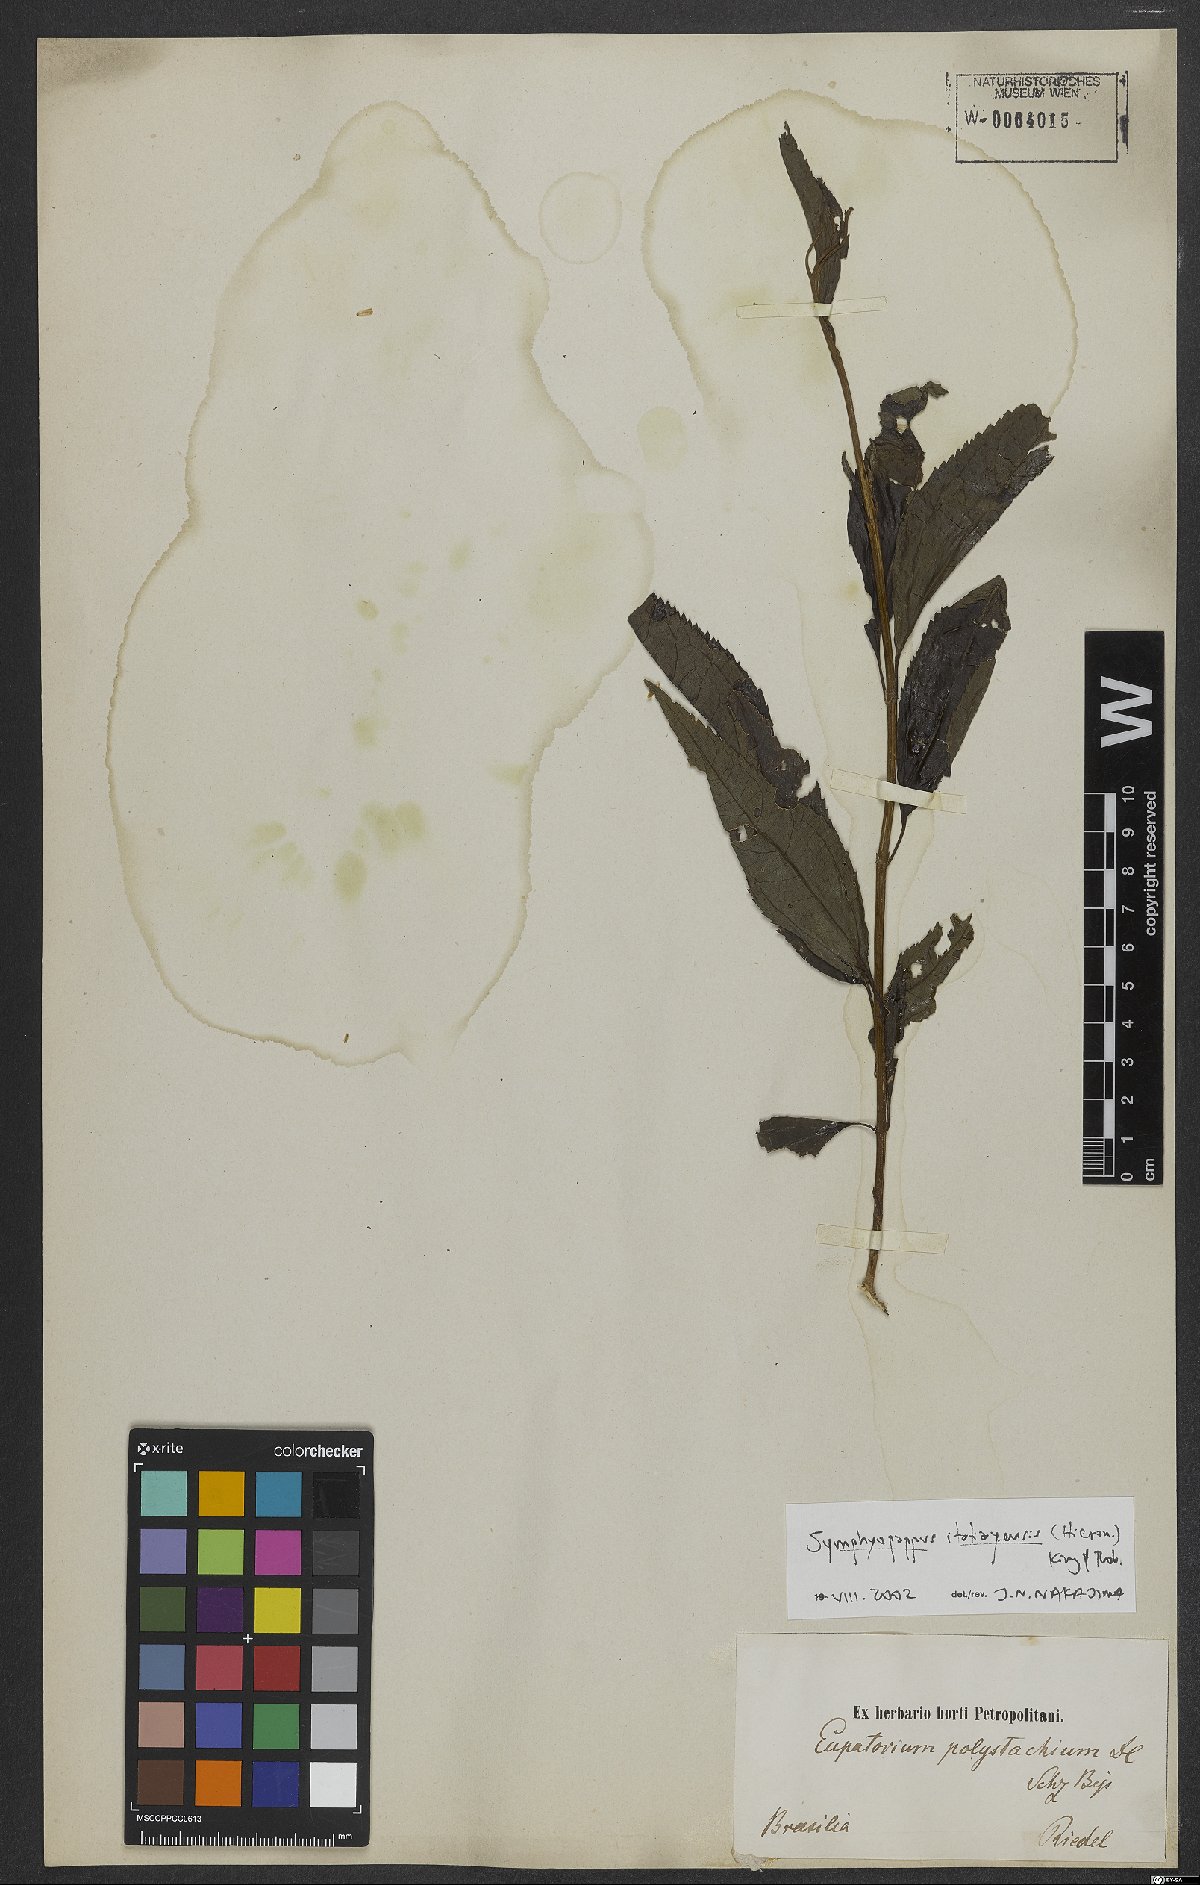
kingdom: Plantae
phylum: Tracheophyta
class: Magnoliopsida
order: Asterales
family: Asteraceae
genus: Symphyopappus
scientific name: Symphyopappus itatiayensis
